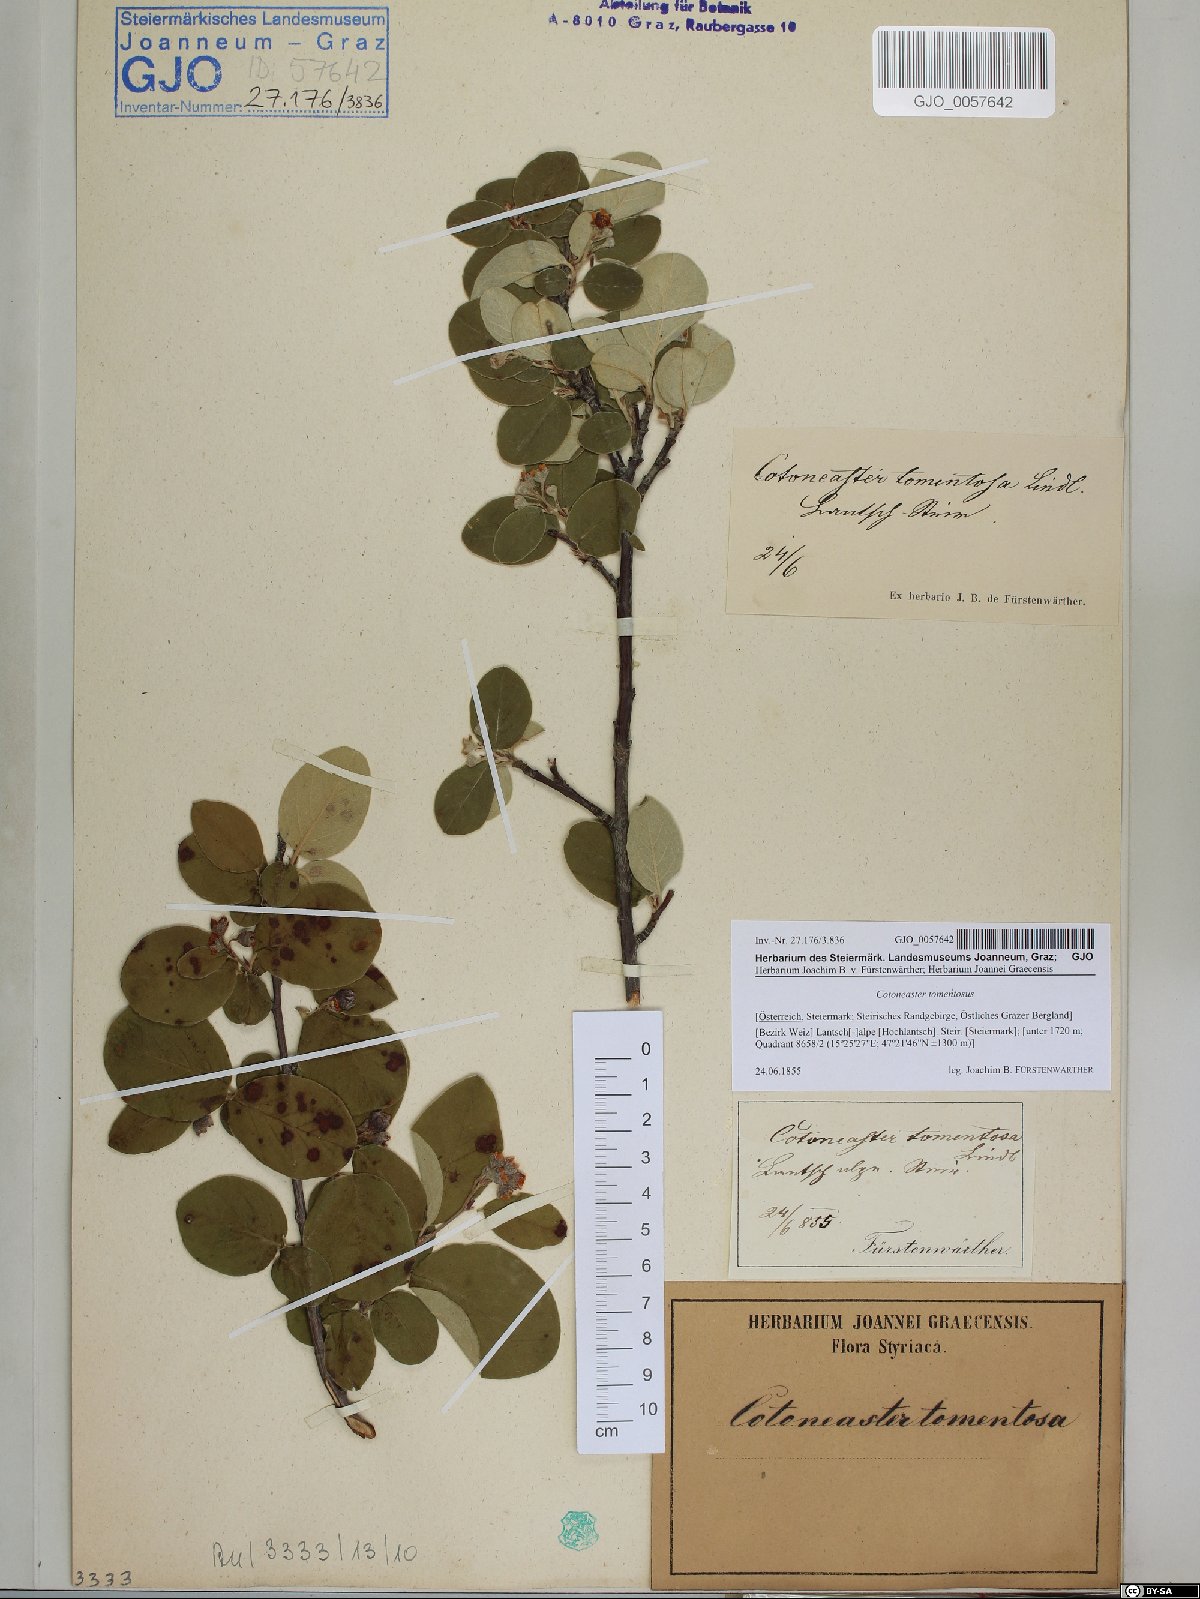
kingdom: Plantae
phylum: Tracheophyta
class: Magnoliopsida
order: Rosales
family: Rosaceae
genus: Cotoneaster
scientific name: Cotoneaster tomentosus
